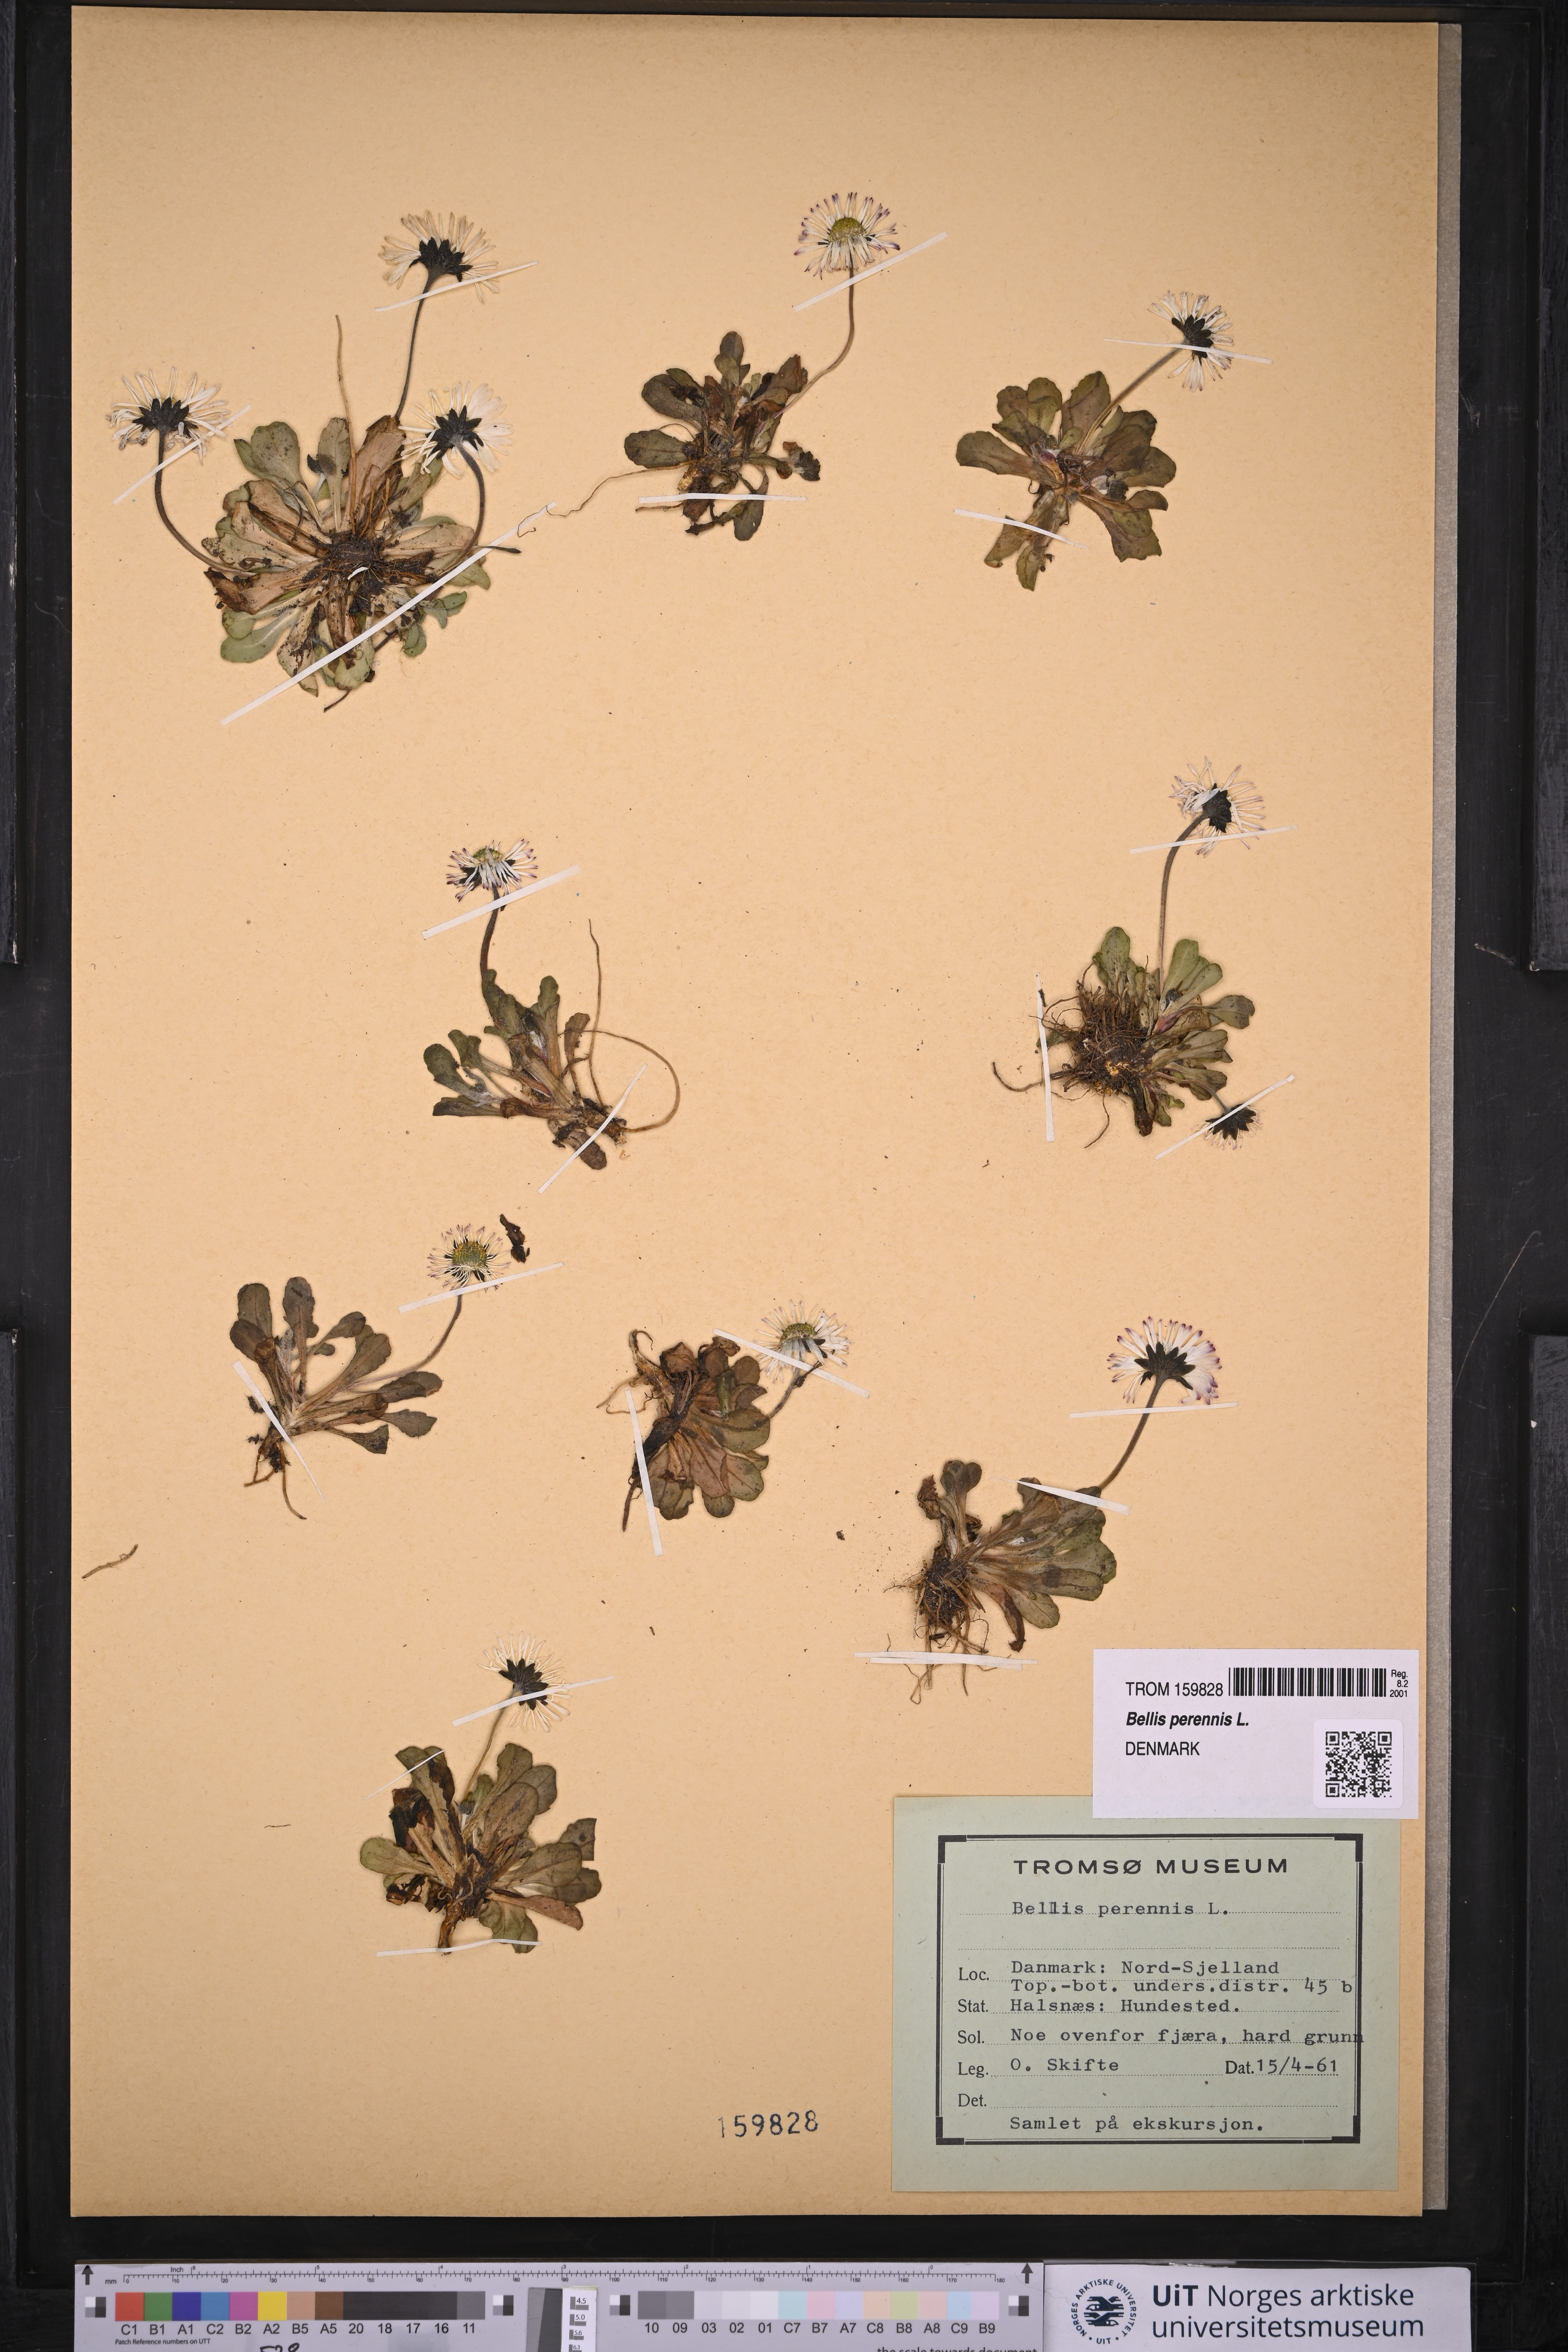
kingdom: Plantae
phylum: Tracheophyta
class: Magnoliopsida
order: Asterales
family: Asteraceae
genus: Bellis
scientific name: Bellis perennis
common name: Lawndaisy
